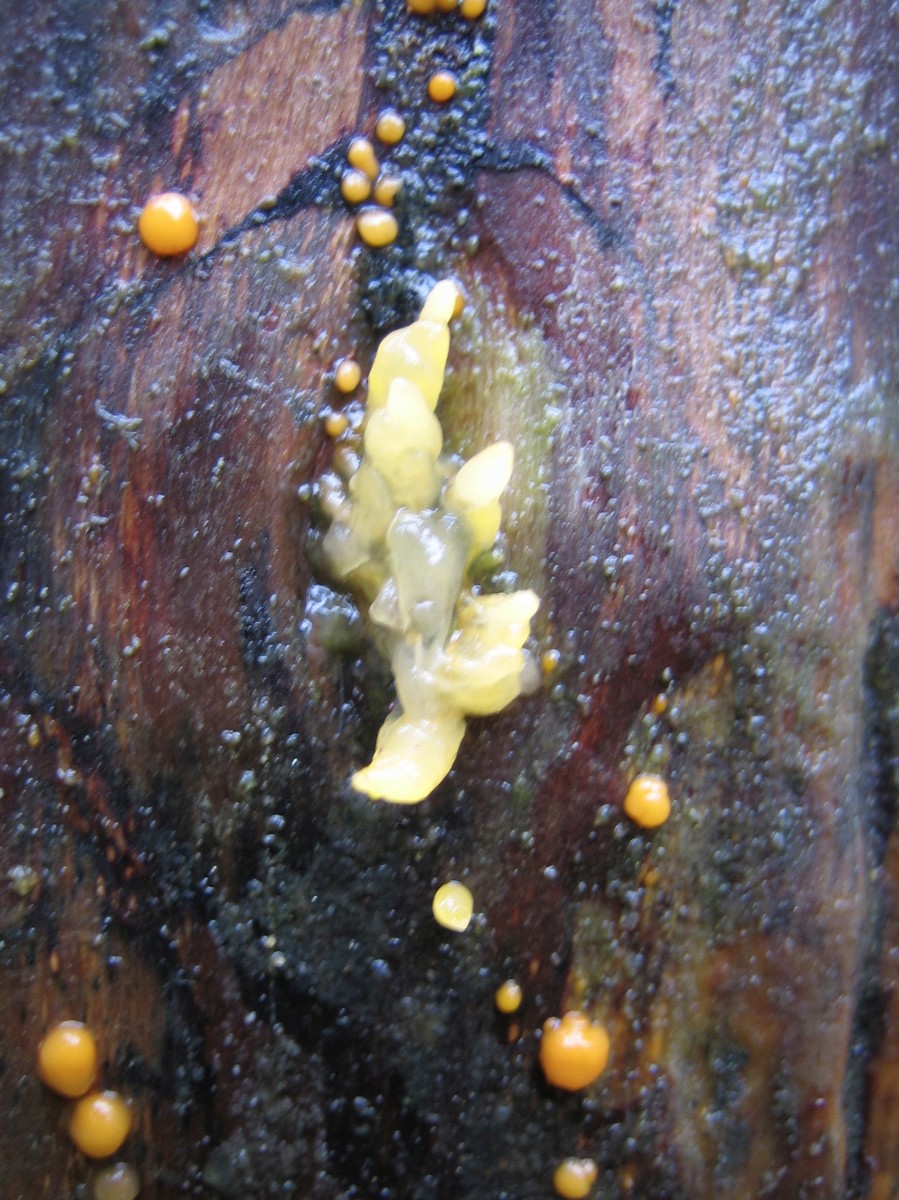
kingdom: Fungi
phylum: Basidiomycota
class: Dacrymycetes
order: Dacrymycetales
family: Dacrymycetaceae
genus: Dacrymyces
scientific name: Dacrymyces stillatus
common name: almindelig tåresvamp
